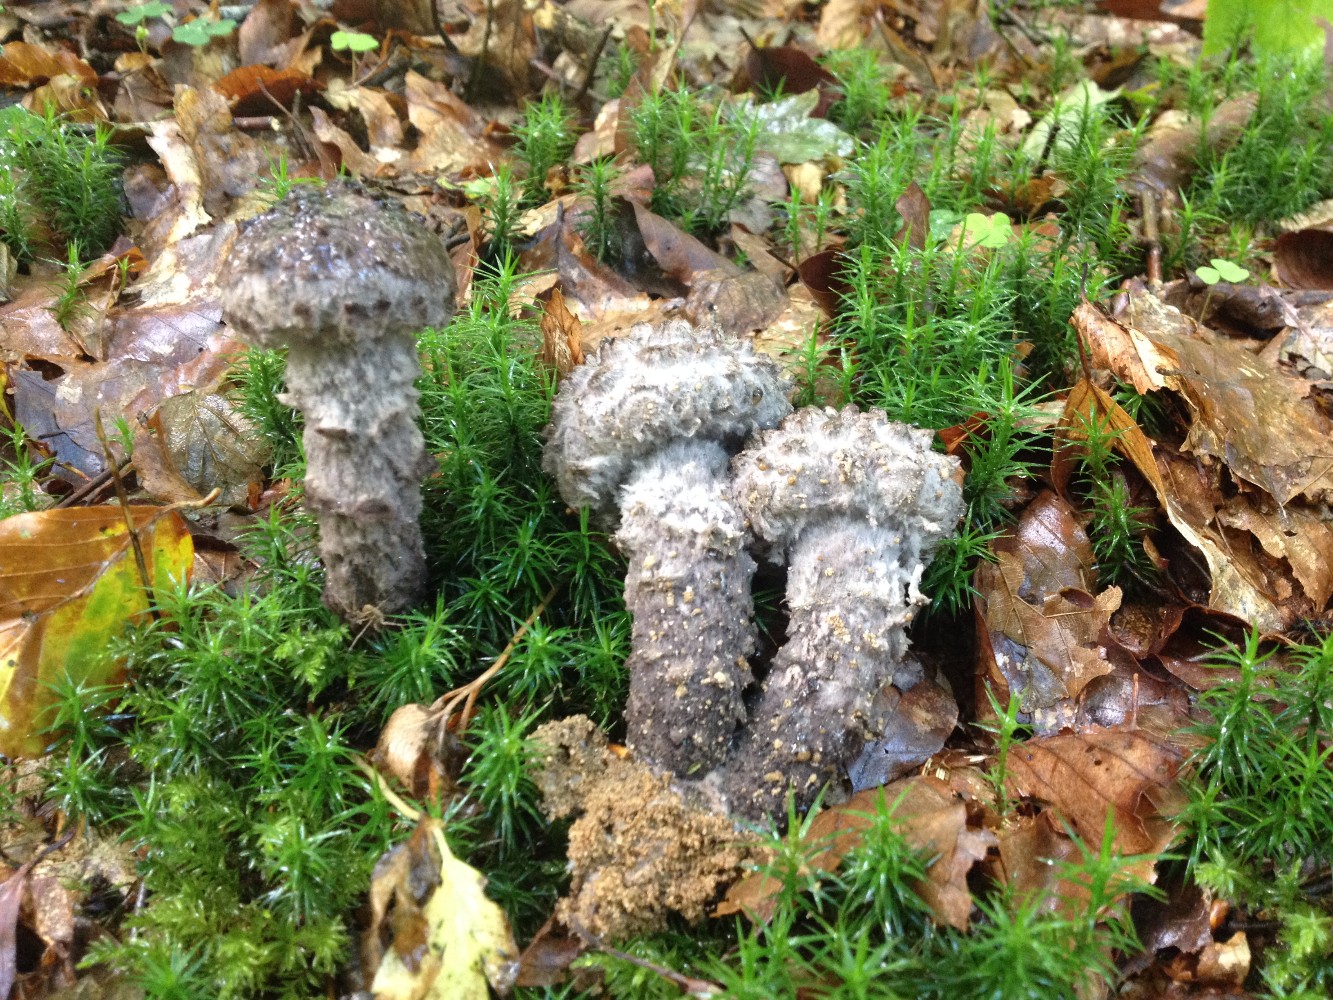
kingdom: Fungi
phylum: Basidiomycota
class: Agaricomycetes
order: Boletales
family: Boletaceae
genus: Strobilomyces
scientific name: Strobilomyces strobilaceus
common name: koglerørhat
